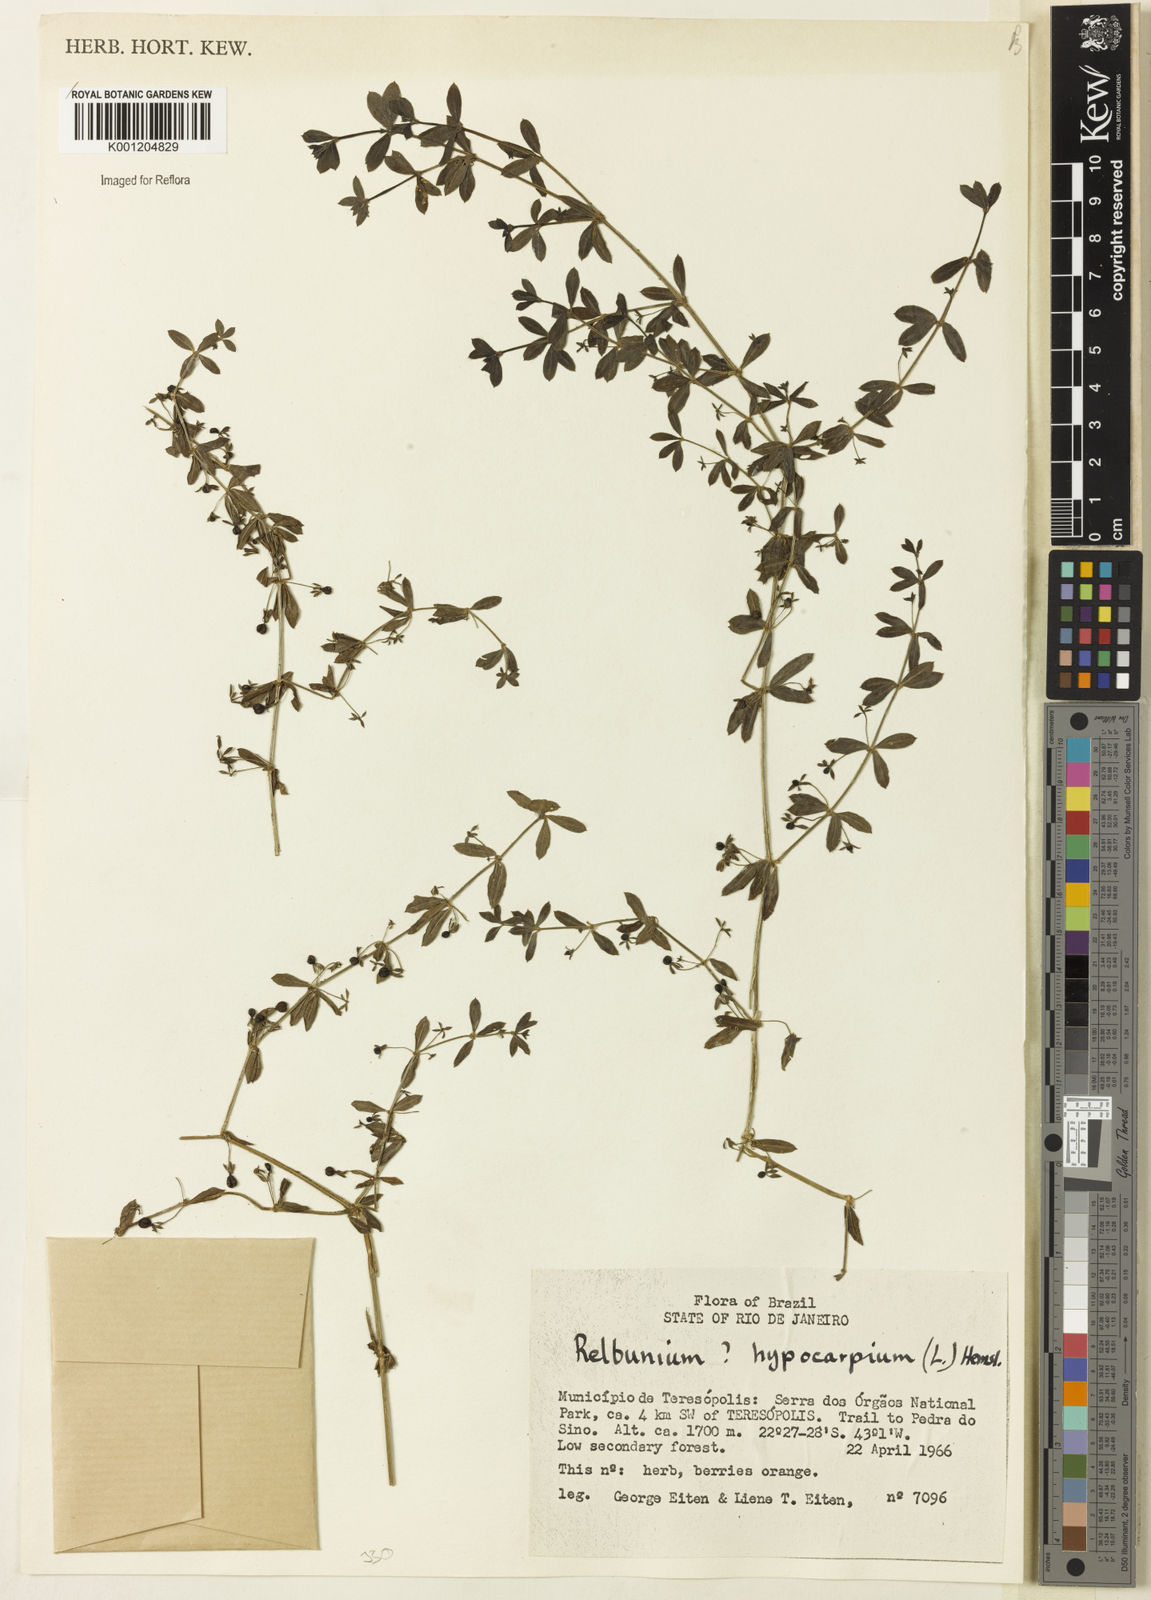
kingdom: Plantae
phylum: Tracheophyta
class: Magnoliopsida
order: Gentianales
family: Rubiaceae
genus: Galium
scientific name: Galium hypocarpium
